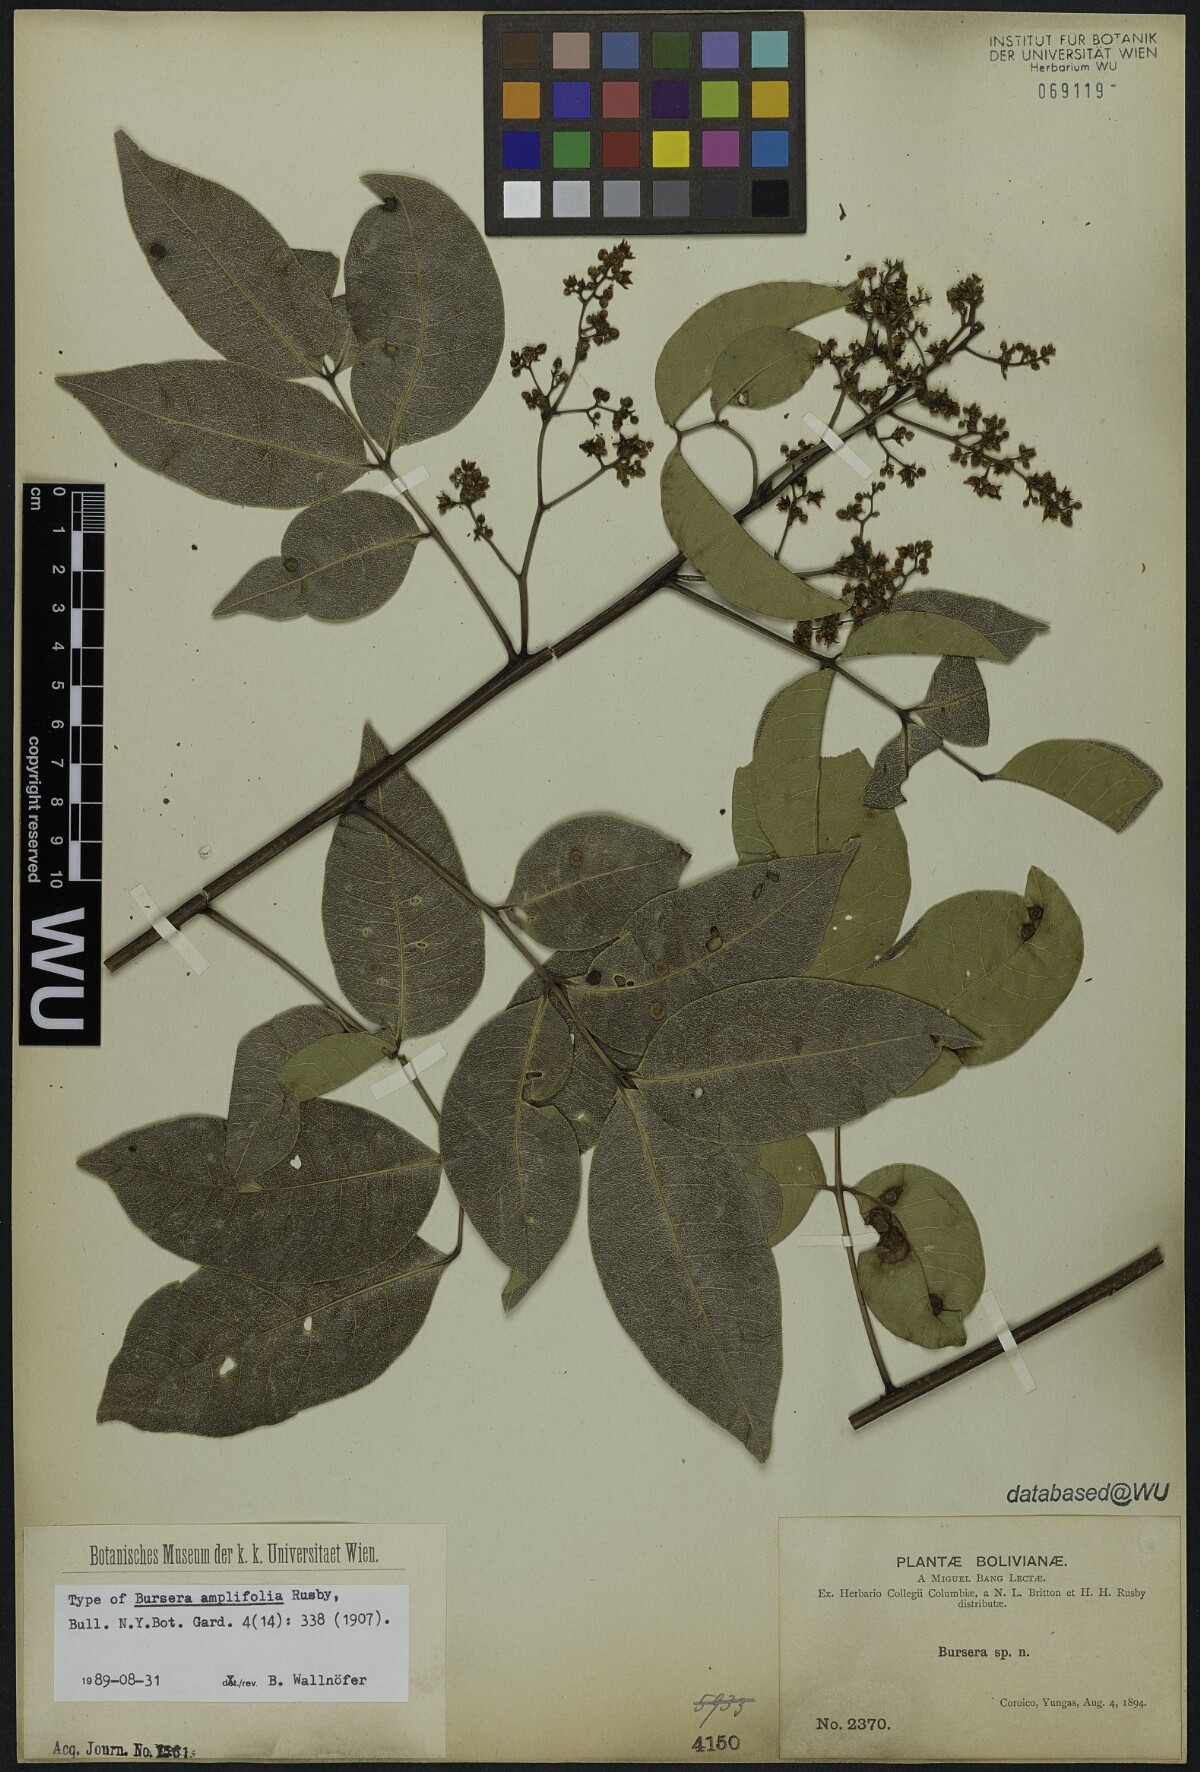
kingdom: Plantae
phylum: Tracheophyta
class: Magnoliopsida
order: Sapindales
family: Anacardiaceae
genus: Mauria
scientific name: Mauria heterophylla
